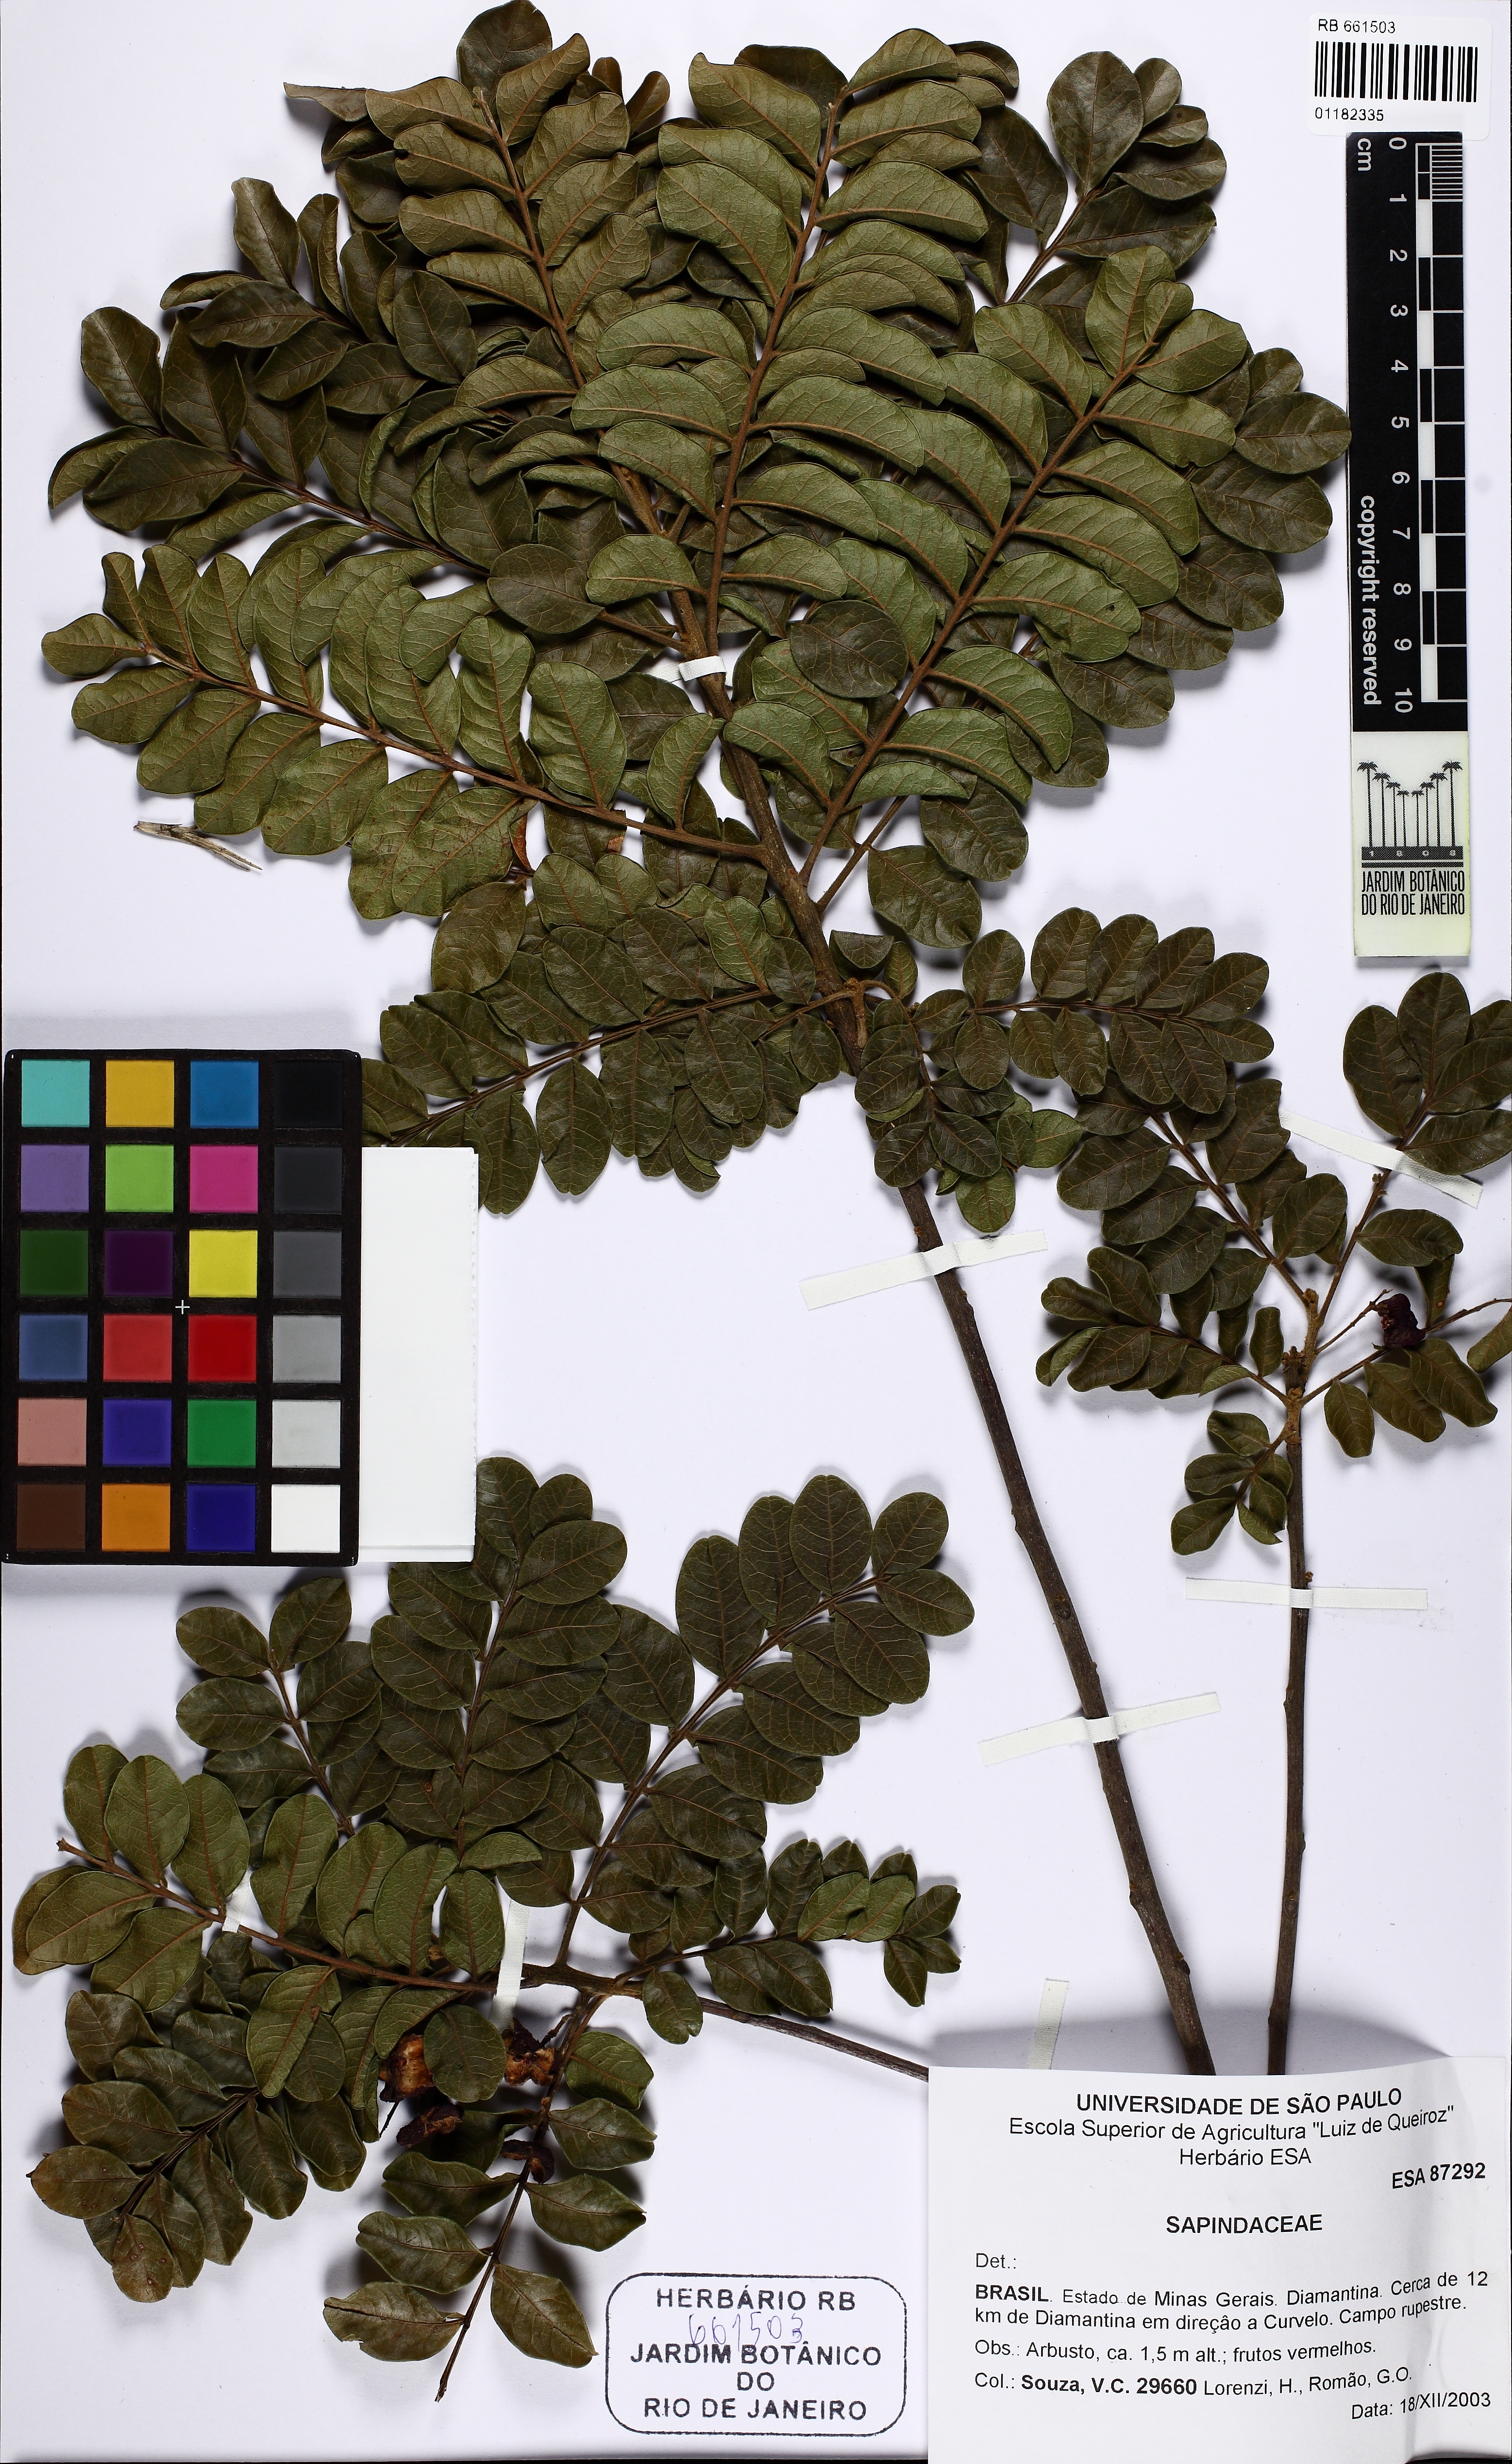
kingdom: Plantae
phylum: Tracheophyta
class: Magnoliopsida
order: Sapindales
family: Sapindaceae
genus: Matayba
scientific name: Matayba marginata
